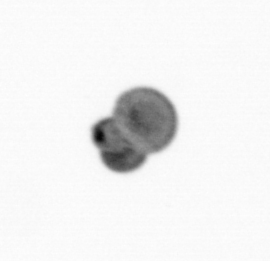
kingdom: Chromista
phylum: Foraminifera
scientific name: Foraminifera
